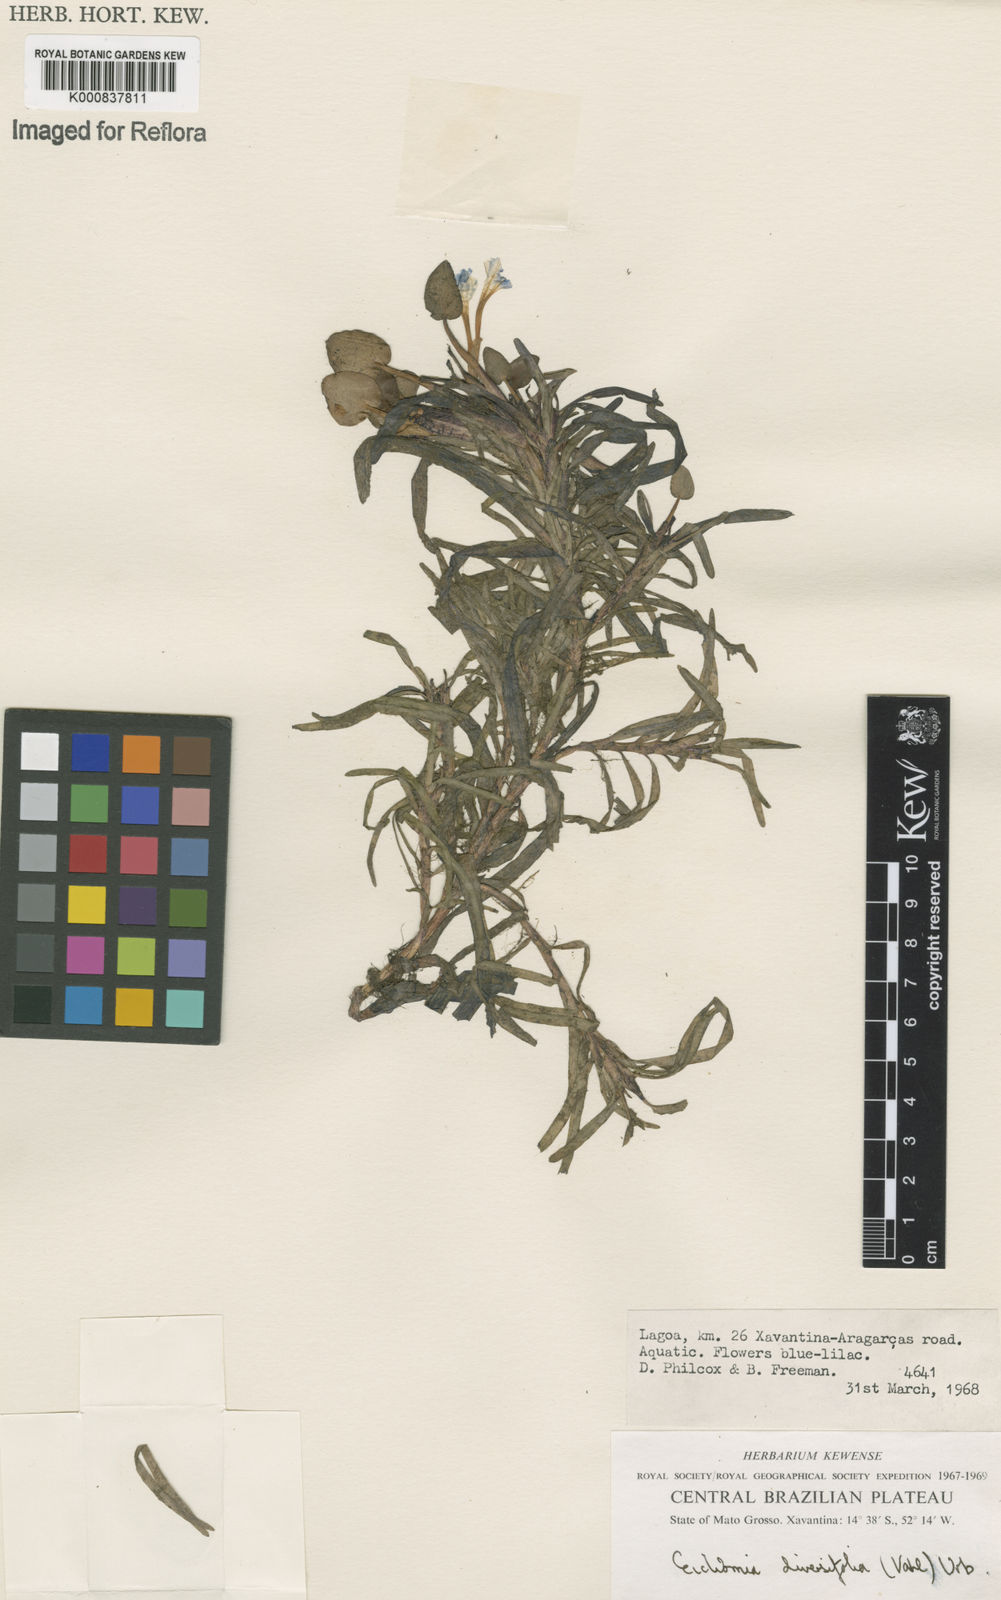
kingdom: Plantae
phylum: Tracheophyta
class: Liliopsida
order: Commelinales
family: Pontederiaceae
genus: Pontederia
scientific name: Pontederia diversifolia
